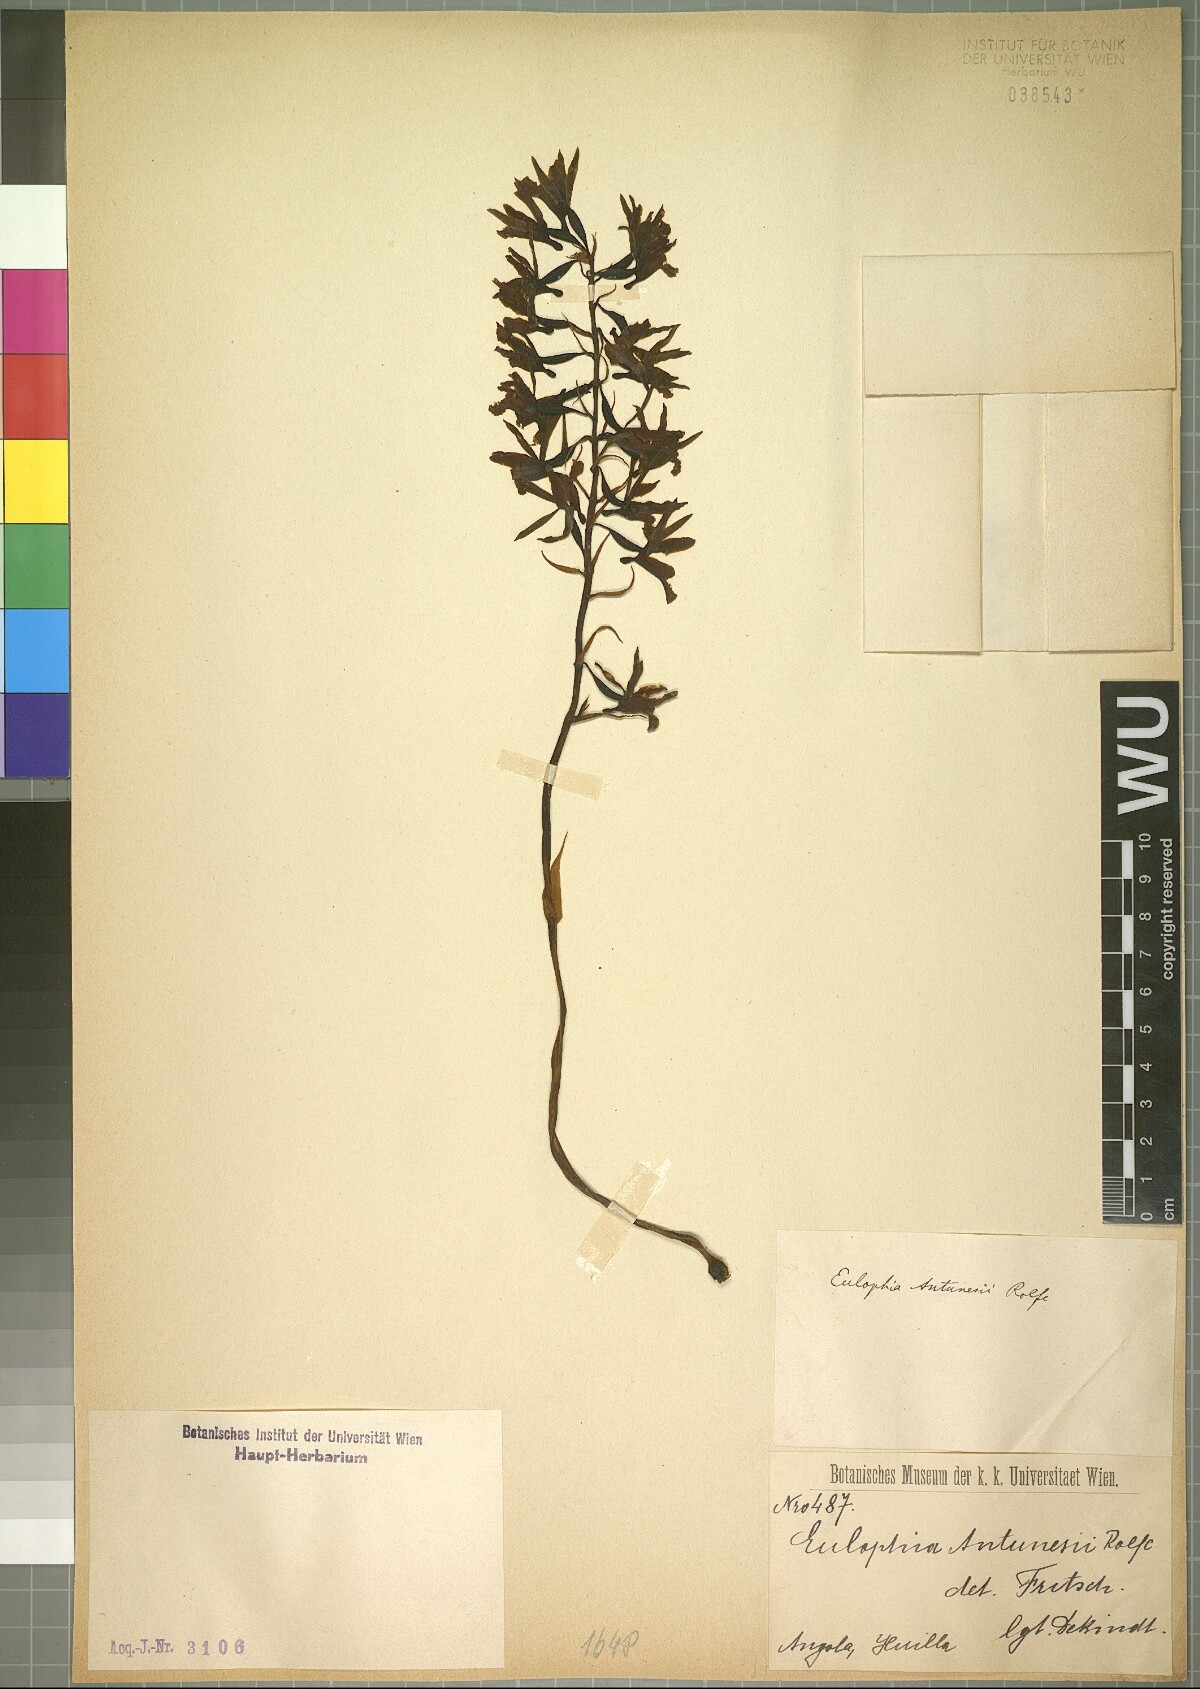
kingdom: Plantae
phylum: Tracheophyta
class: Liliopsida
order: Asparagales
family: Orchidaceae
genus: Eulophia
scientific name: Eulophia antunesii
